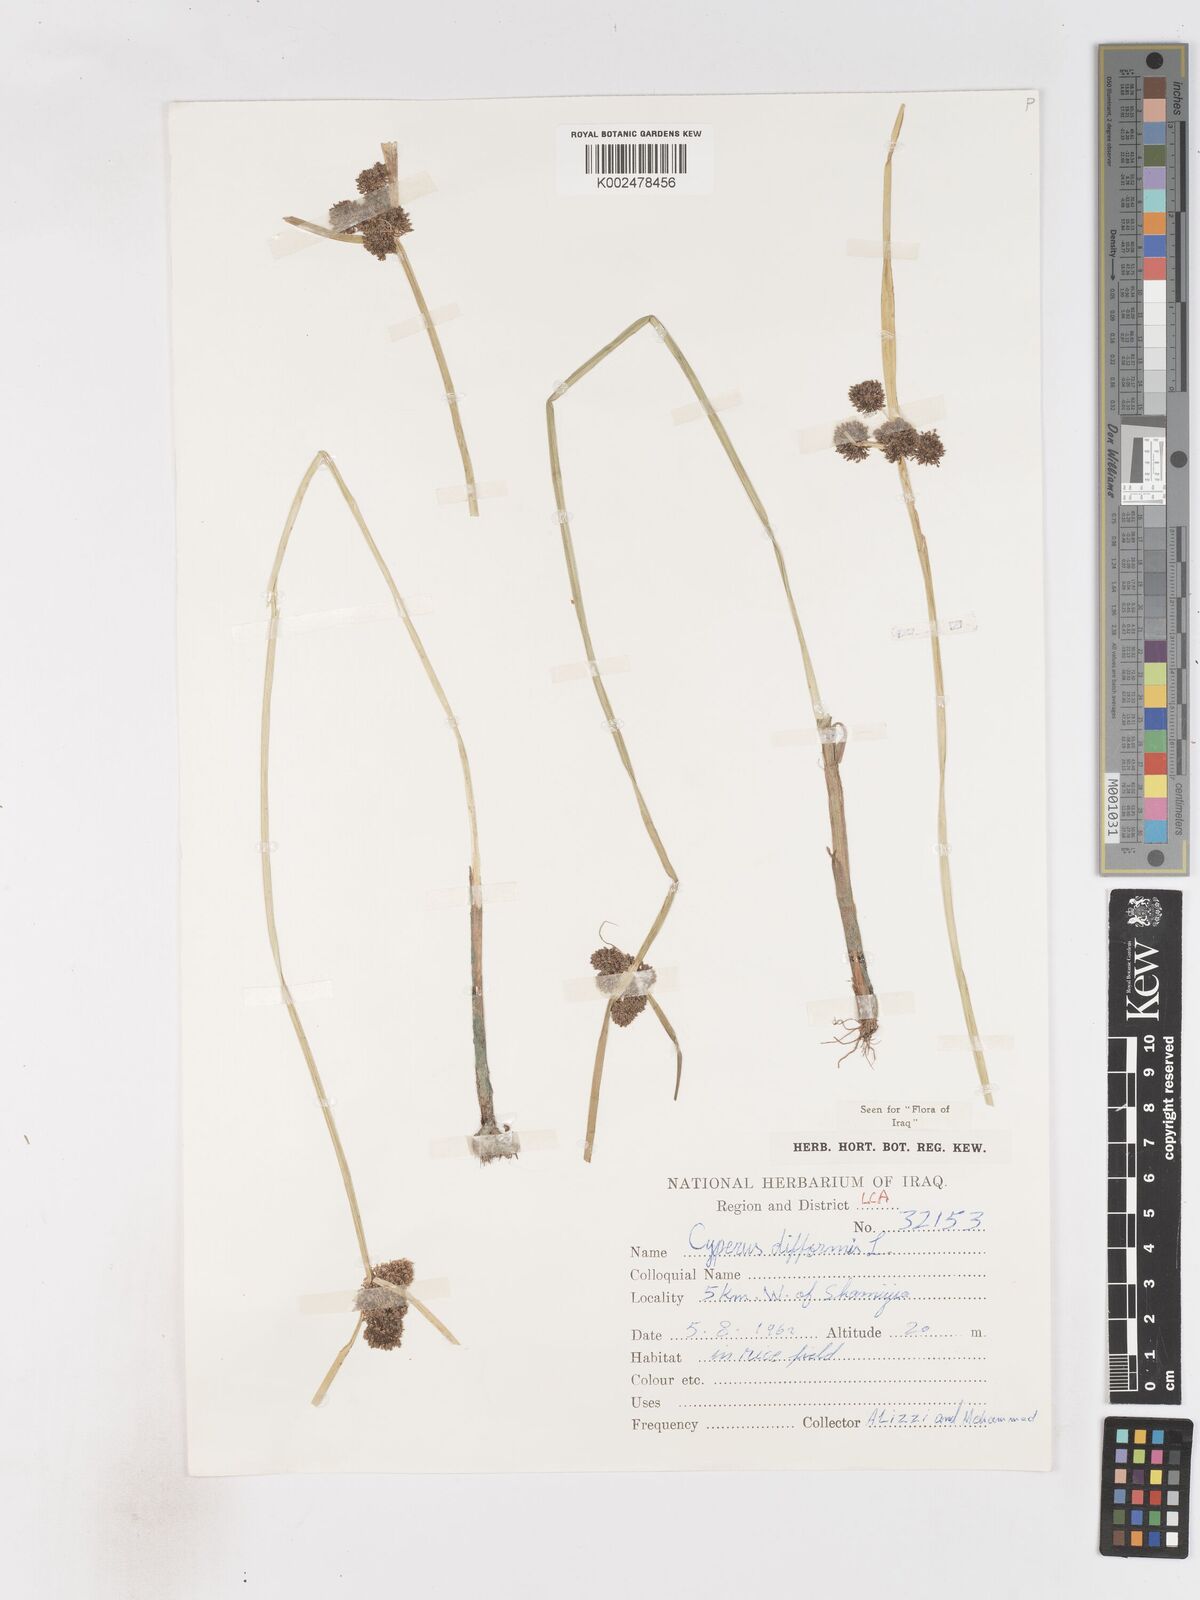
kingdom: Plantae
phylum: Tracheophyta
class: Liliopsida
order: Poales
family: Cyperaceae
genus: Cyperus
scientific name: Cyperus difformis
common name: Variable flatsedge
